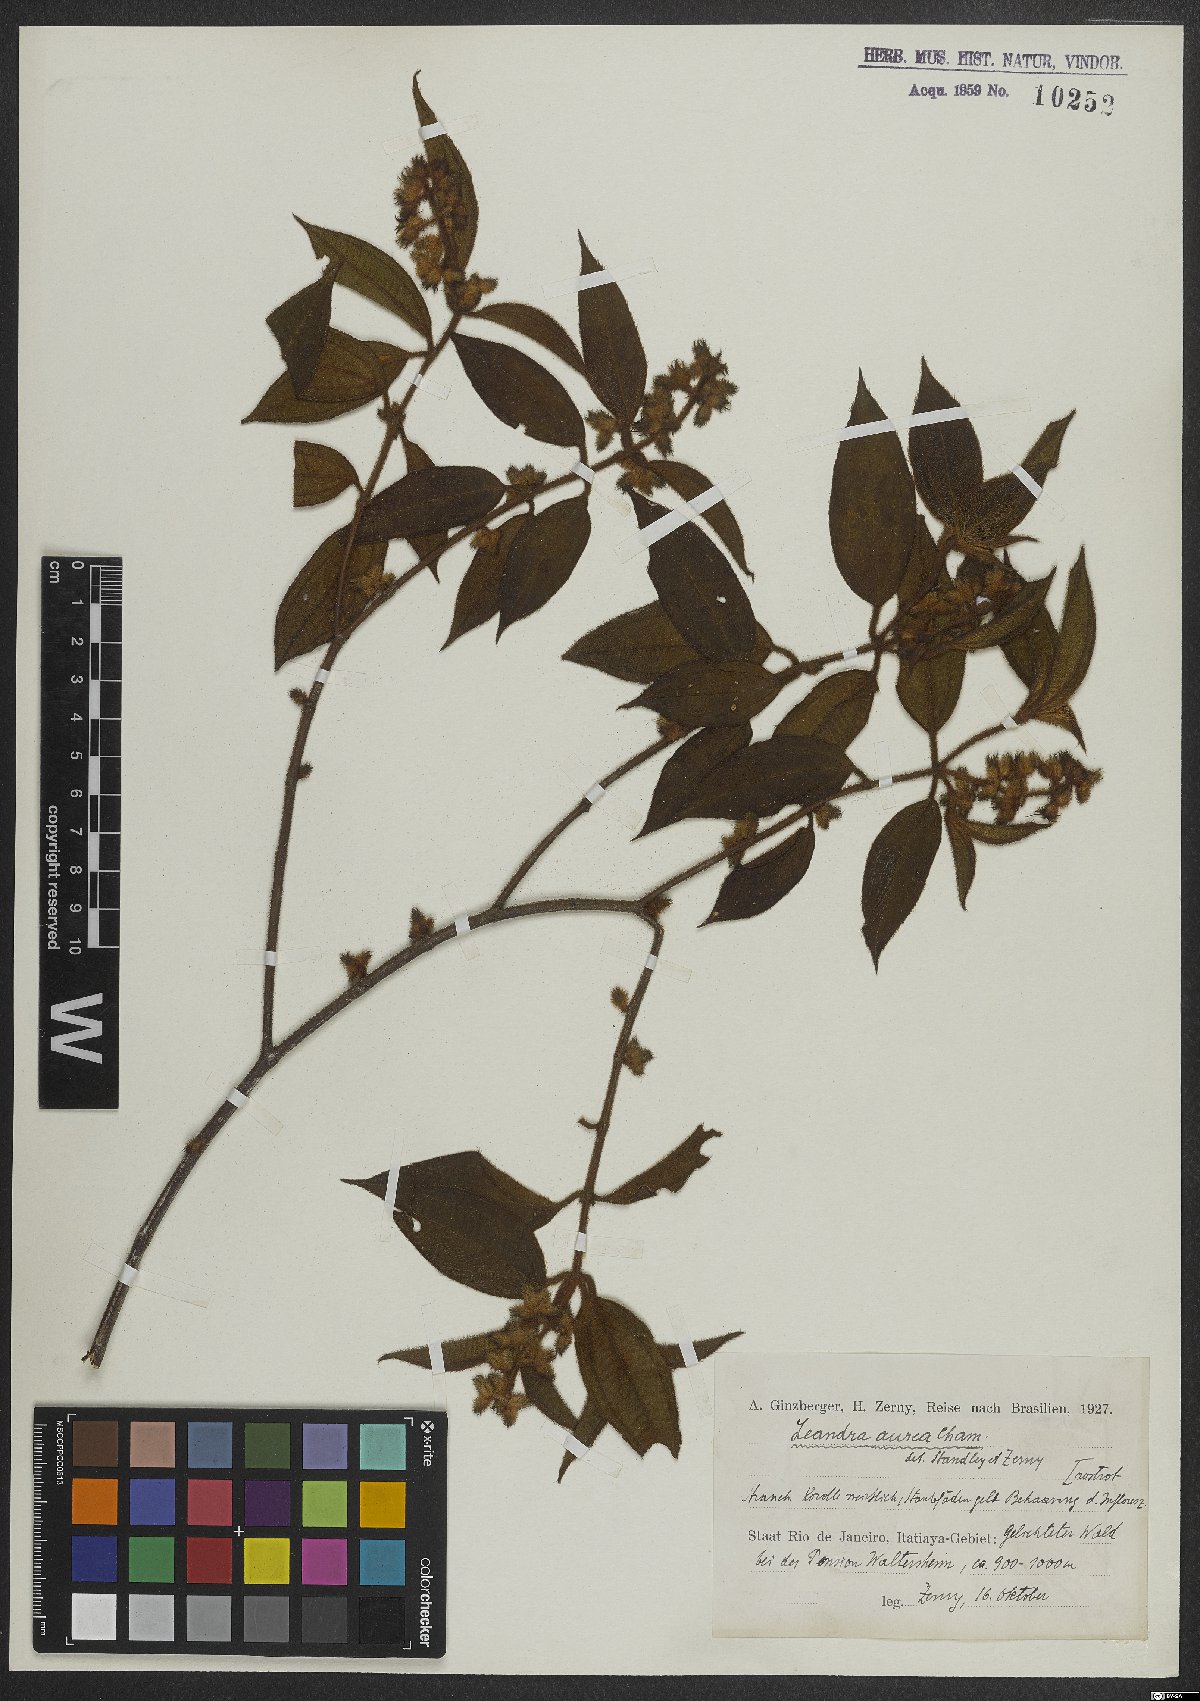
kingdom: Plantae
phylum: Tracheophyta
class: Magnoliopsida
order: Myrtales
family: Melastomataceae
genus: Miconia
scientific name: Miconia auricoma
